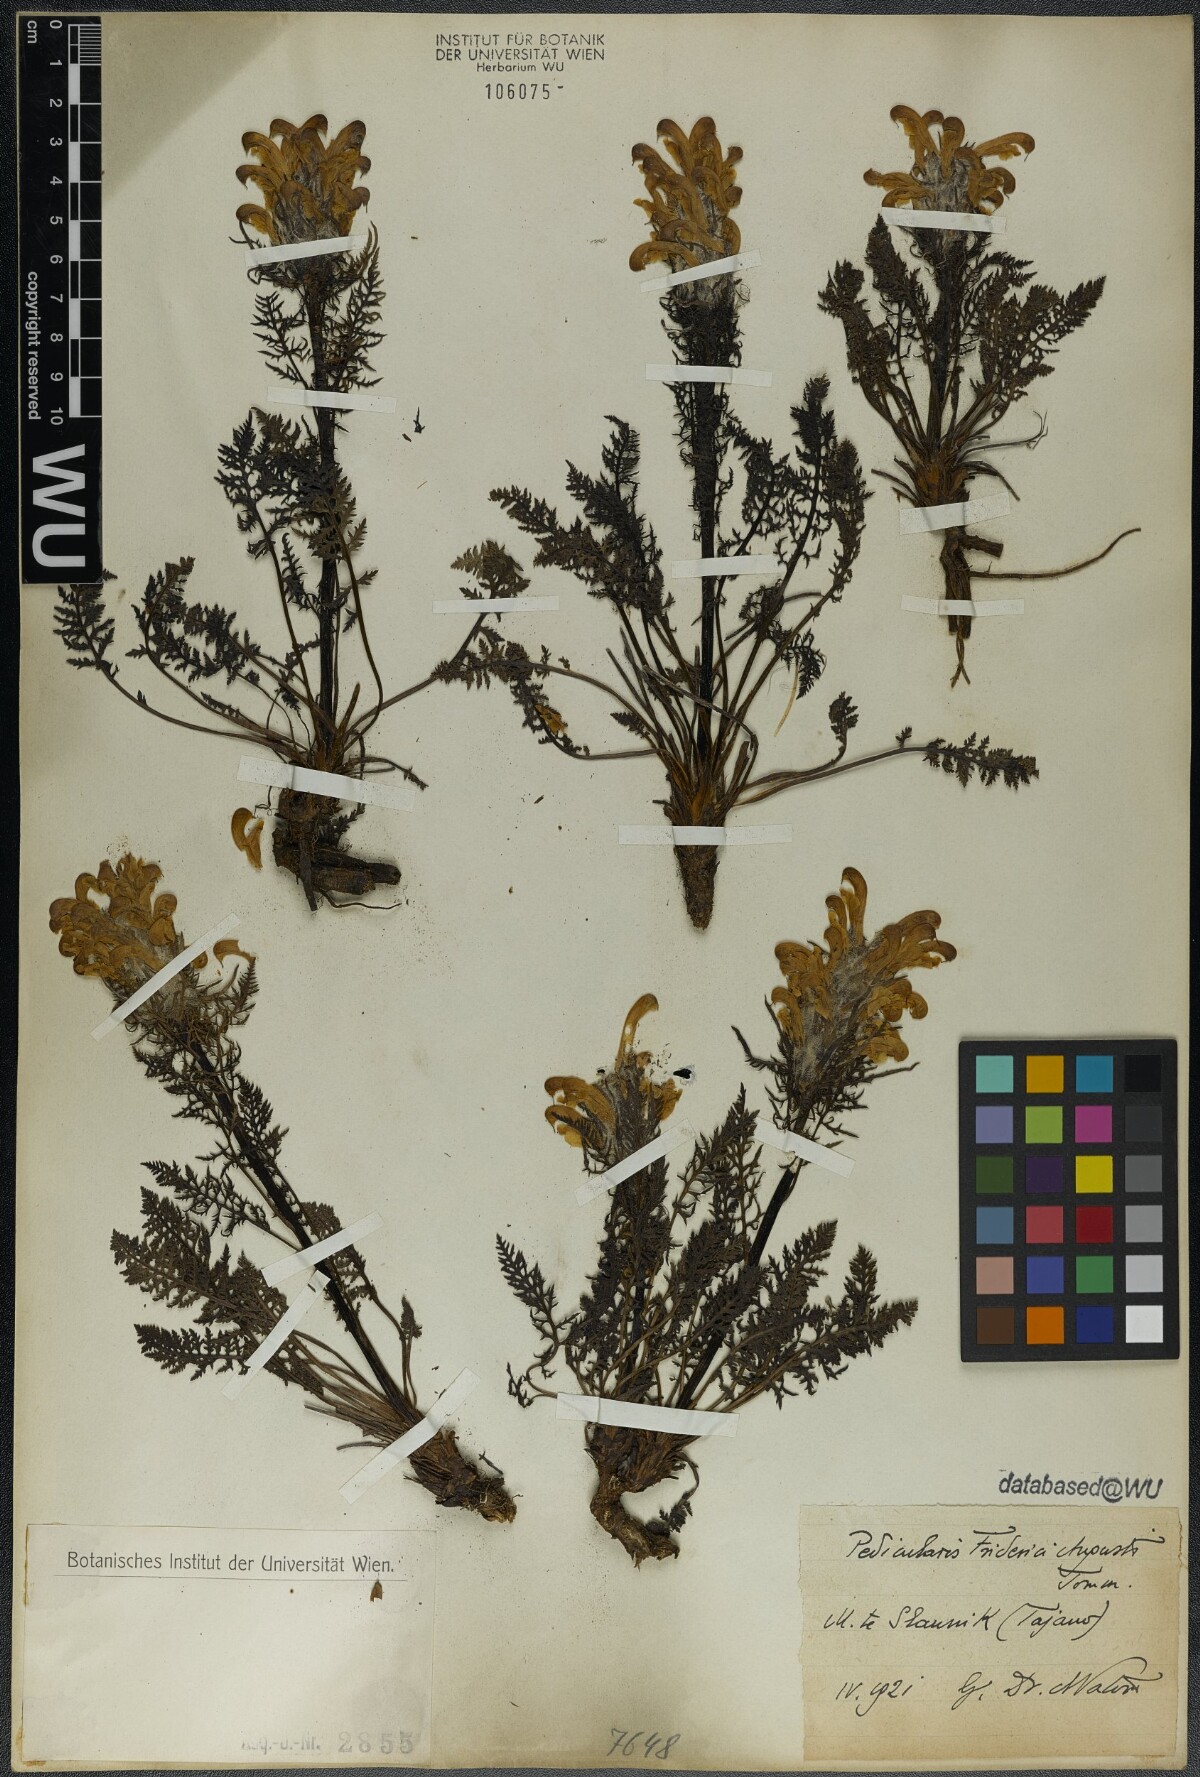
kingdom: Plantae
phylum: Tracheophyta
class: Magnoliopsida
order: Lamiales
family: Orobanchaceae
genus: Pedicularis
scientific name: Pedicularis friderici-augusti
